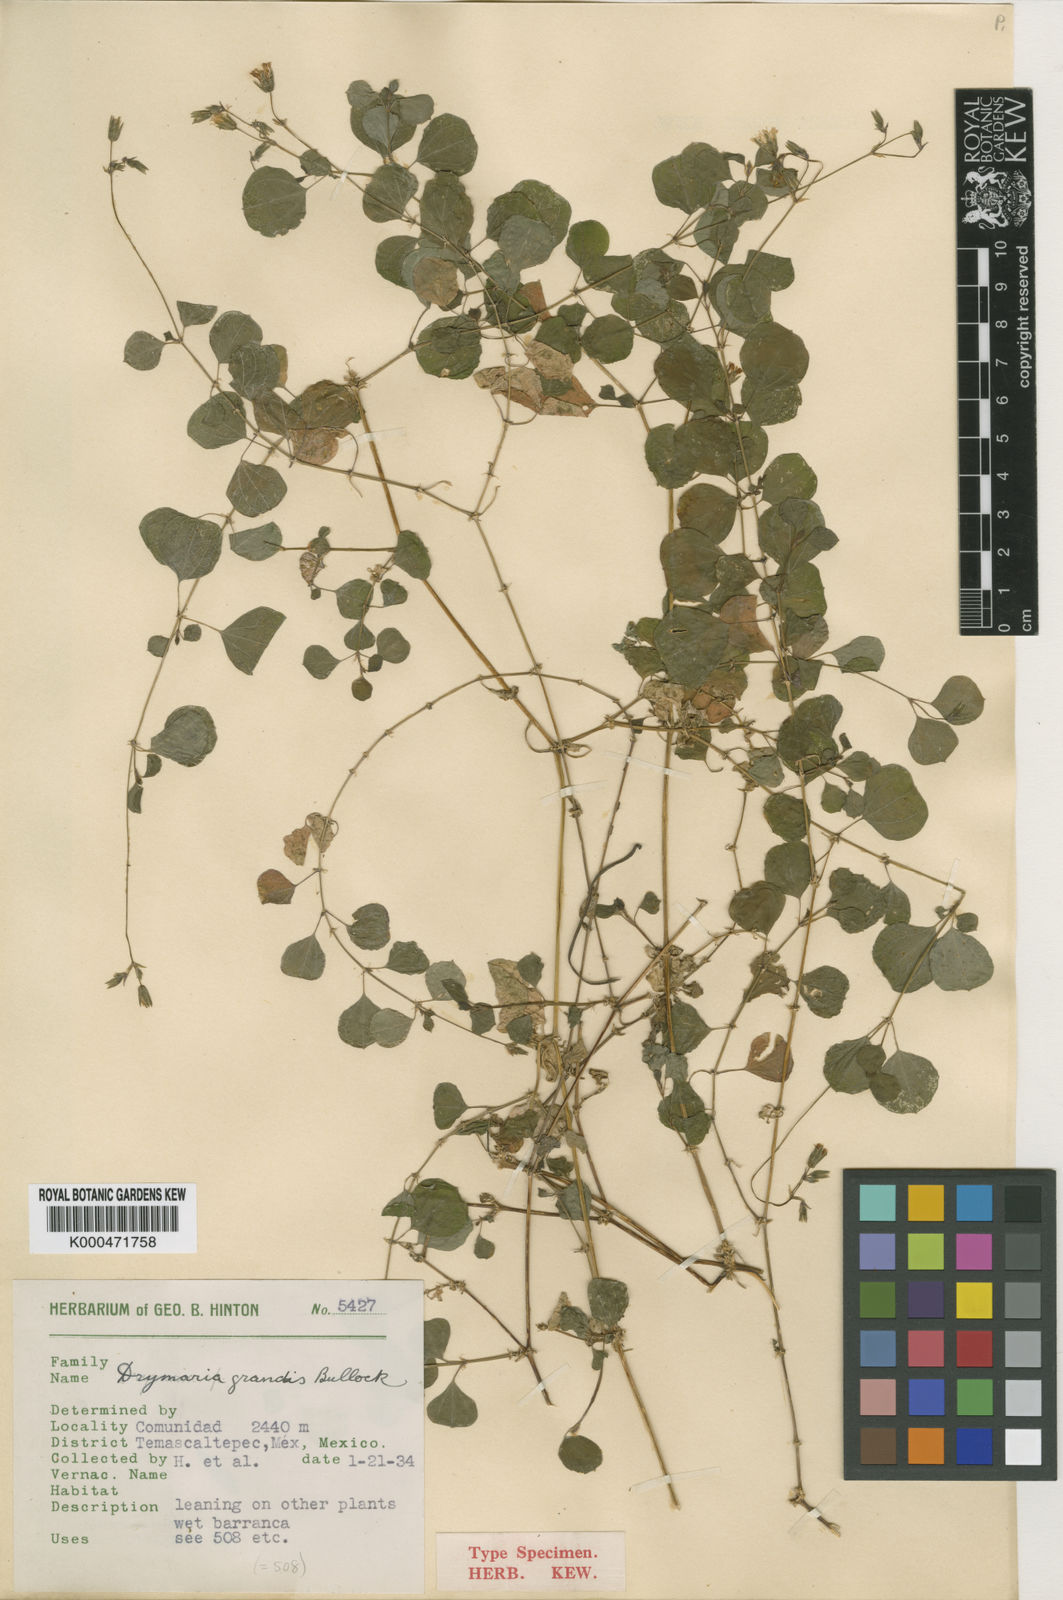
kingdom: Plantae
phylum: Tracheophyta
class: Magnoliopsida
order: Caryophyllales
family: Caryophyllaceae
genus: Drymaria
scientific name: Drymaria excisa
